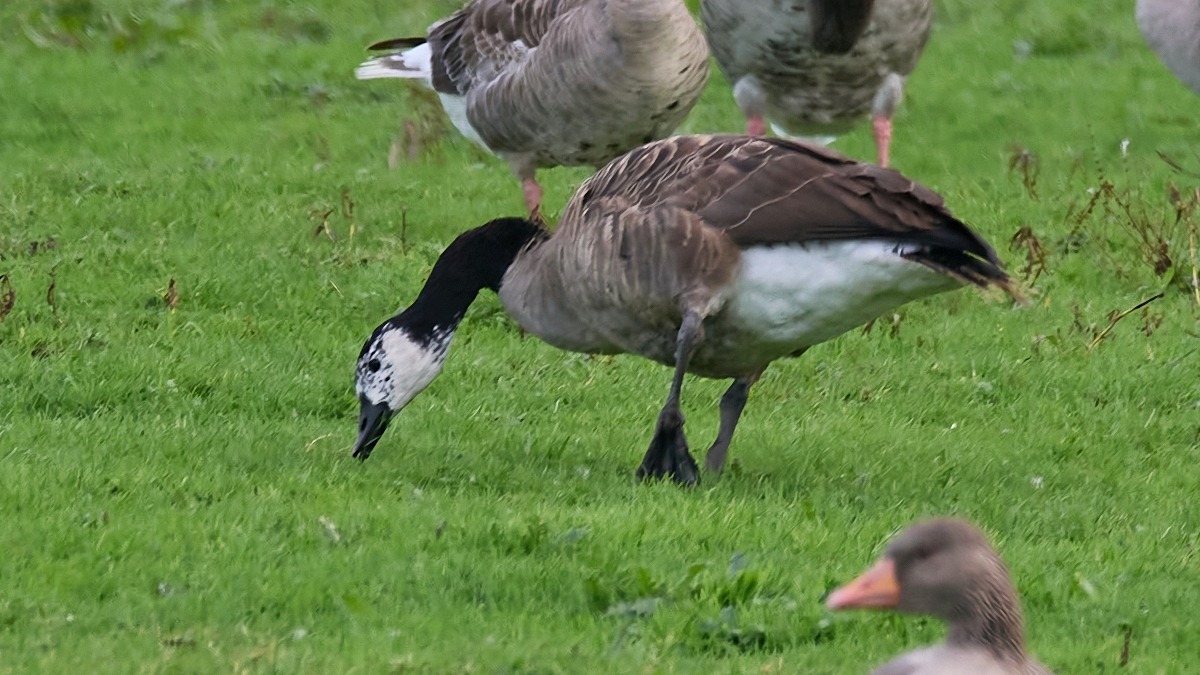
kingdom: Animalia
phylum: Chordata
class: Aves
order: Anseriformes
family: Anatidae
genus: Branta
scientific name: Branta canadensis
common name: Canadagås
